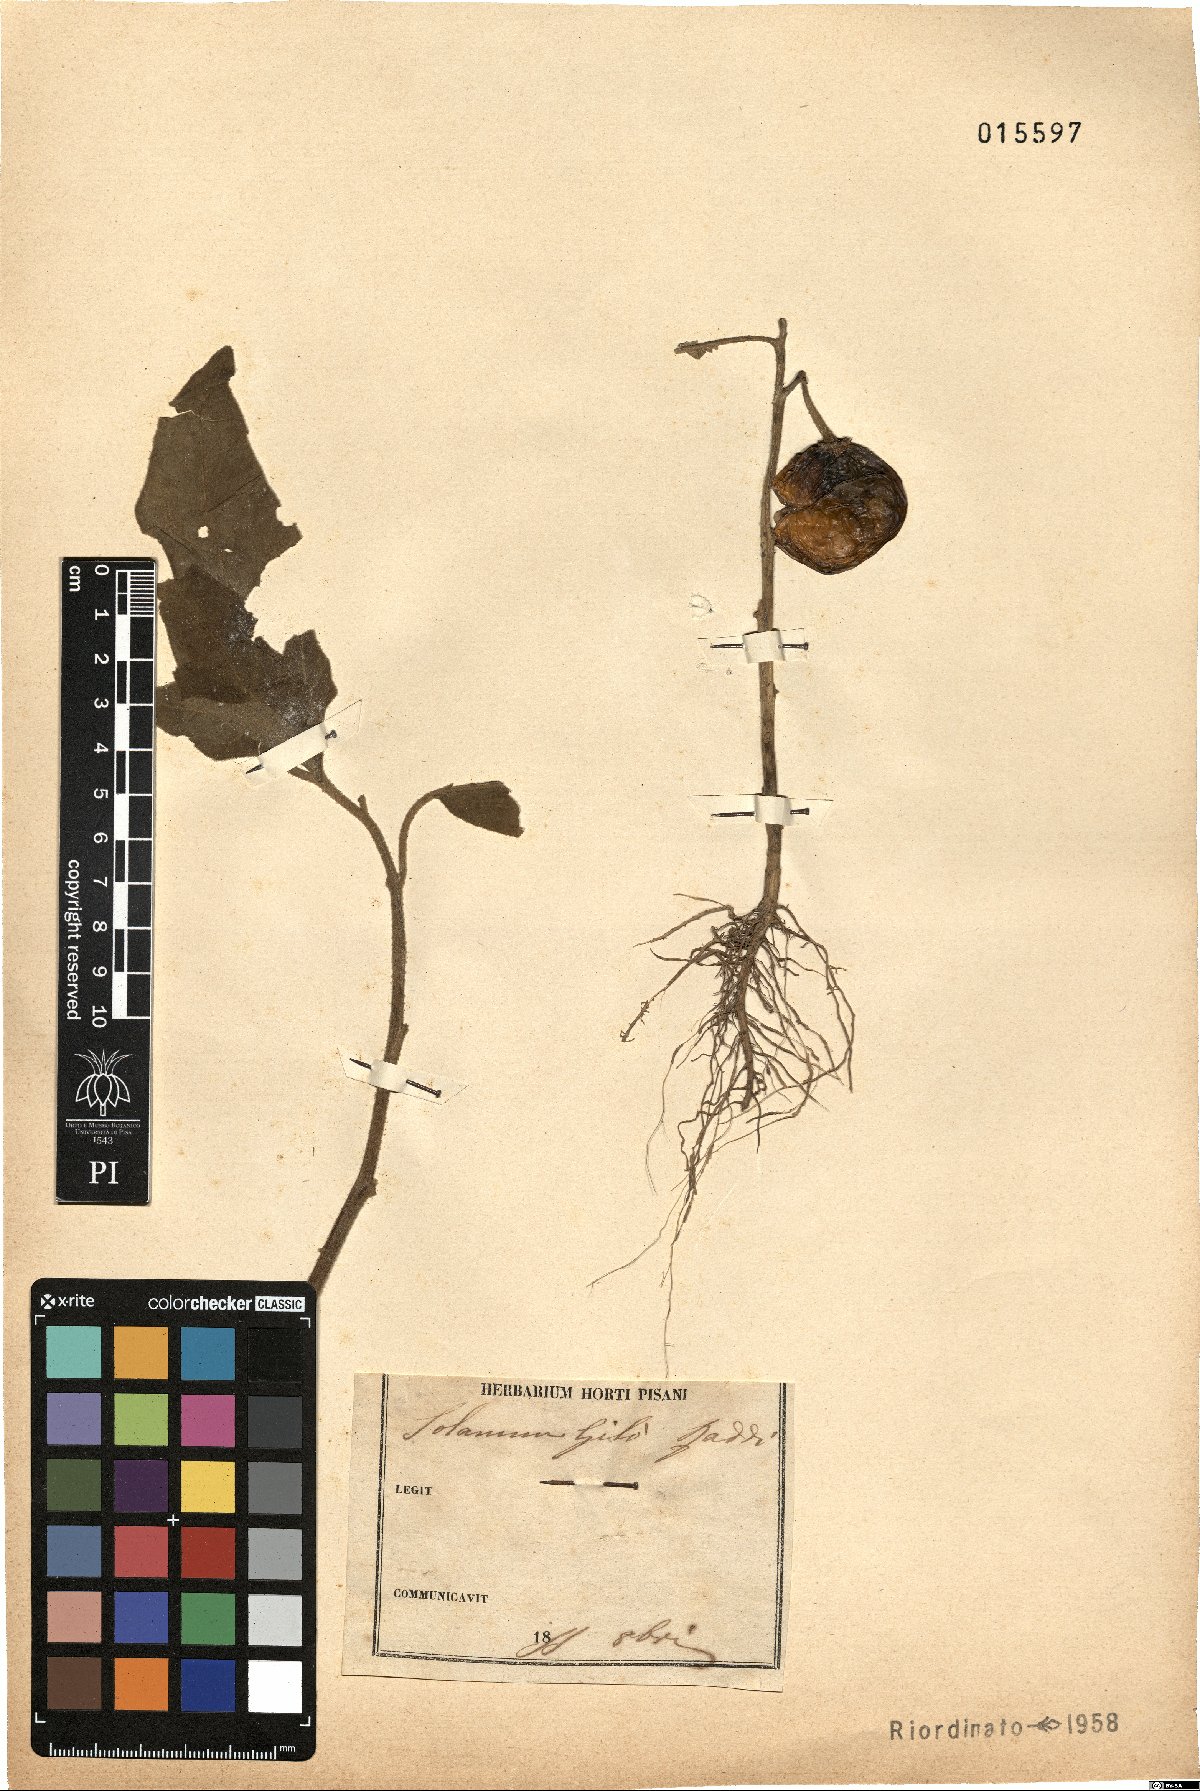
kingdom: Plantae
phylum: Tracheophyta
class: Magnoliopsida
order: Solanales
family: Solanaceae
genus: Solanum
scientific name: Solanum aethiopicum
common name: Gilo
